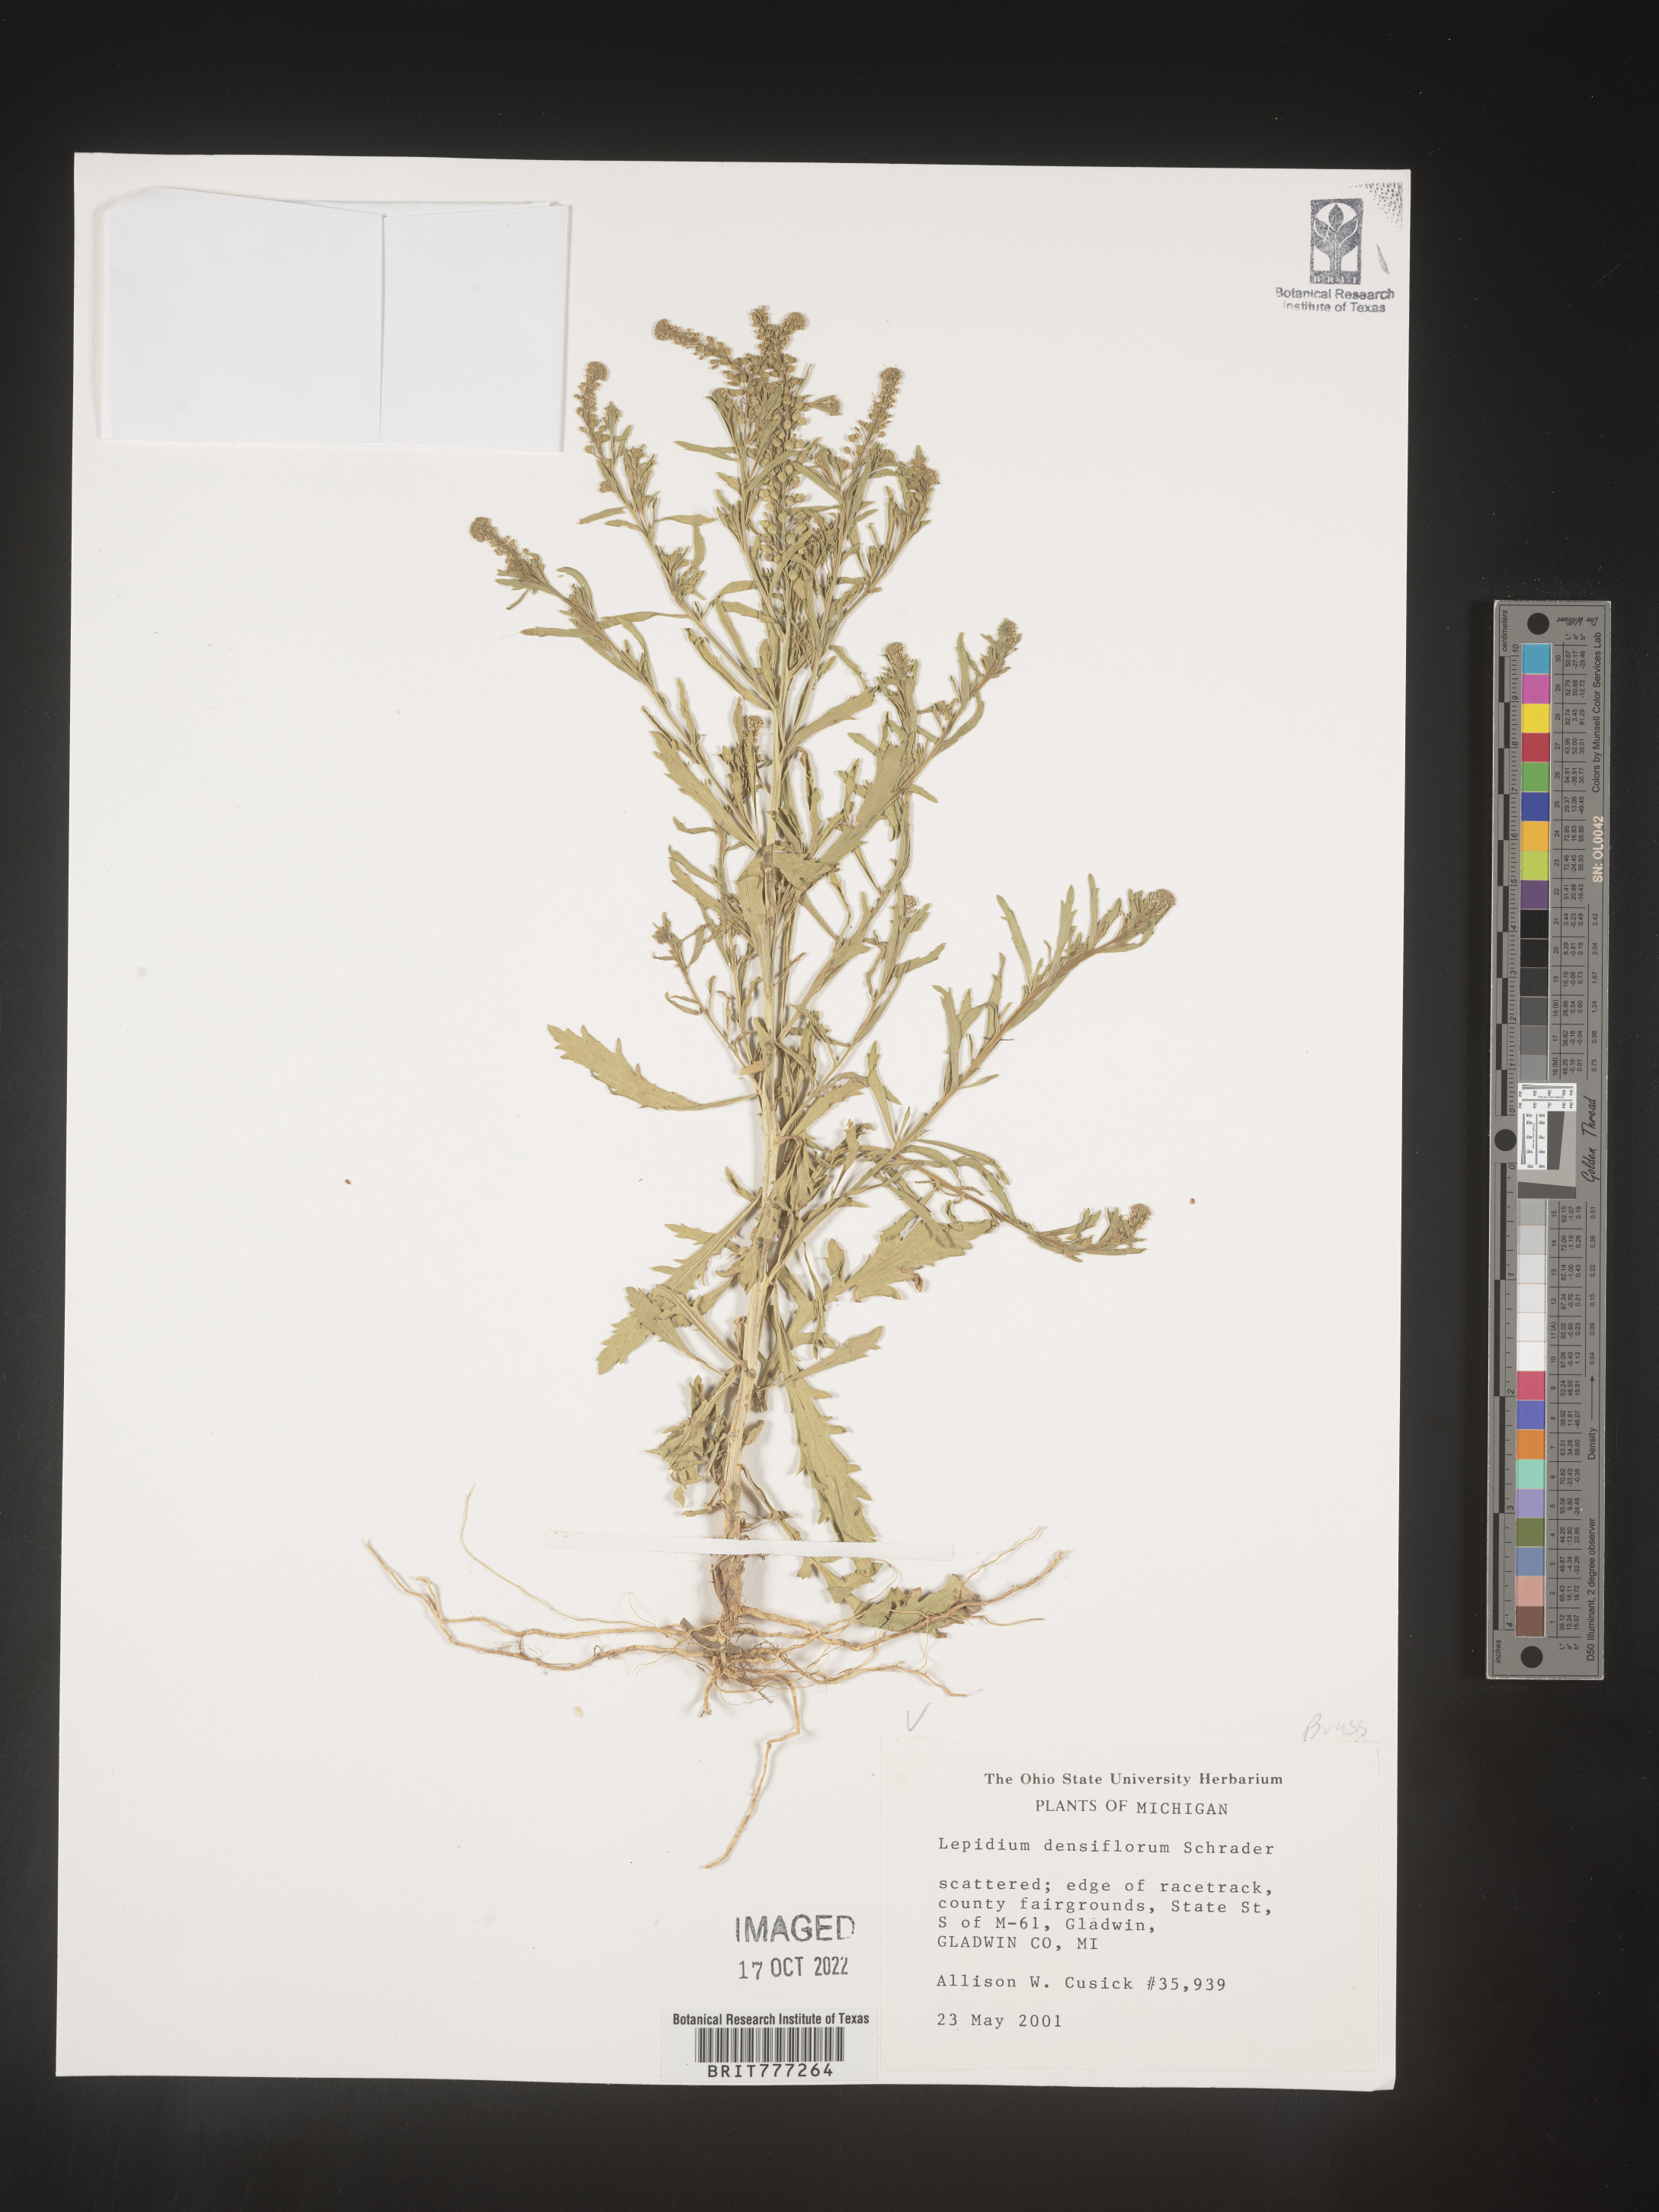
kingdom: Plantae
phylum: Tracheophyta
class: Magnoliopsida
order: Brassicales
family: Brassicaceae
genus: Lepidium
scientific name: Lepidium densiflorum
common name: Miner's pepperwort
